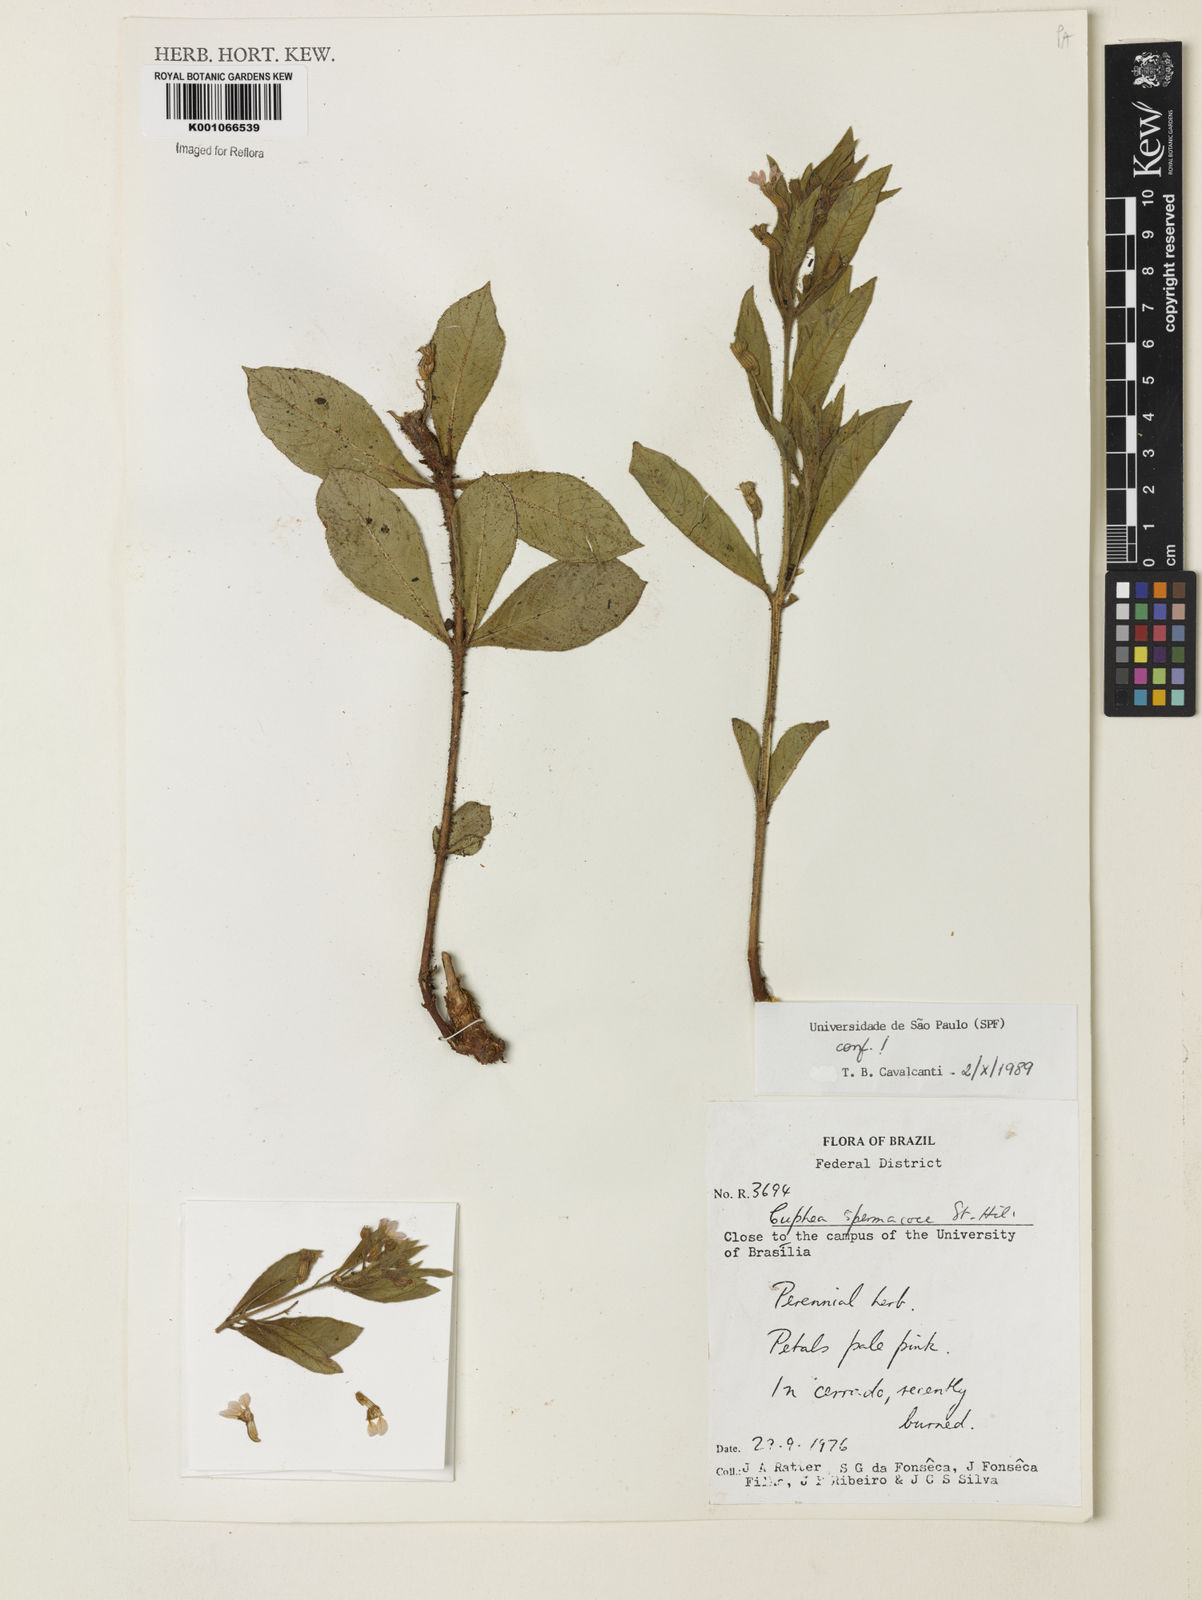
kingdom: Plantae
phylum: Tracheophyta
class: Magnoliopsida
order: Myrtales
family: Lythraceae
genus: Cuphea
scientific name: Cuphea spermacoce
